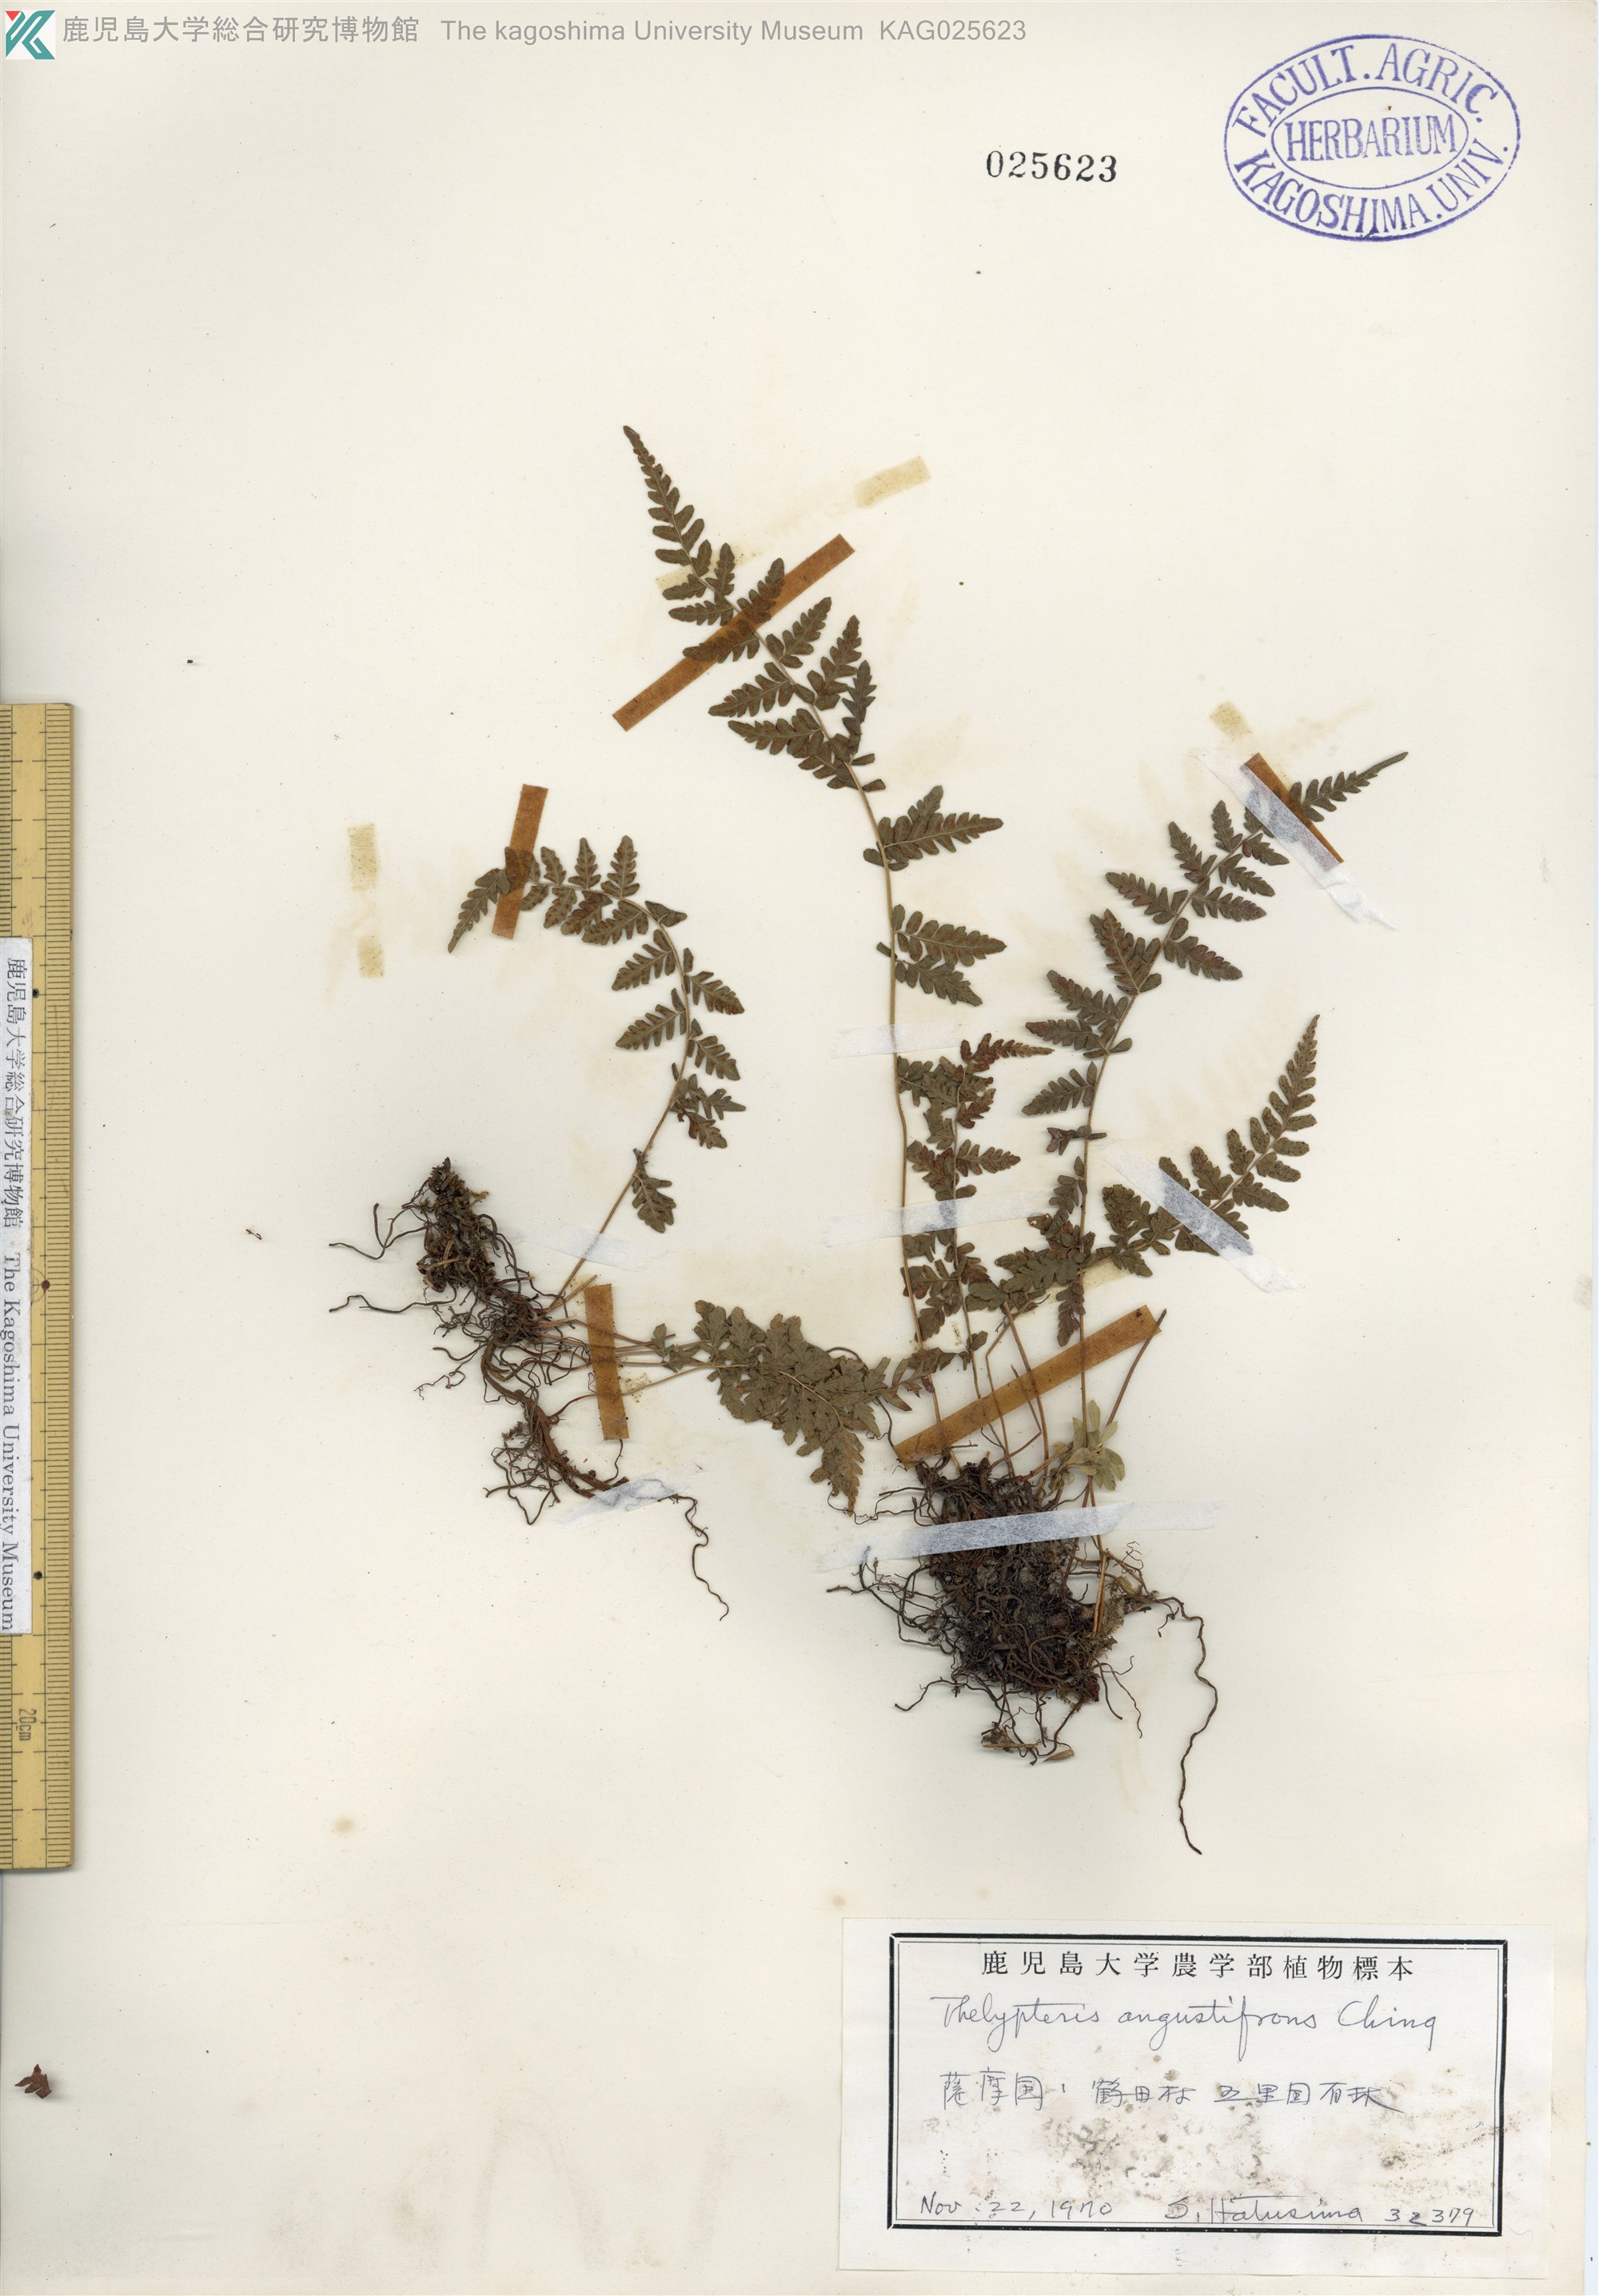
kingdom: Plantae
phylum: Tracheophyta
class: Polypodiopsida
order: Polypodiales
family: Thelypteridaceae
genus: Amauropelta
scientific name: Amauropelta angustifrons
